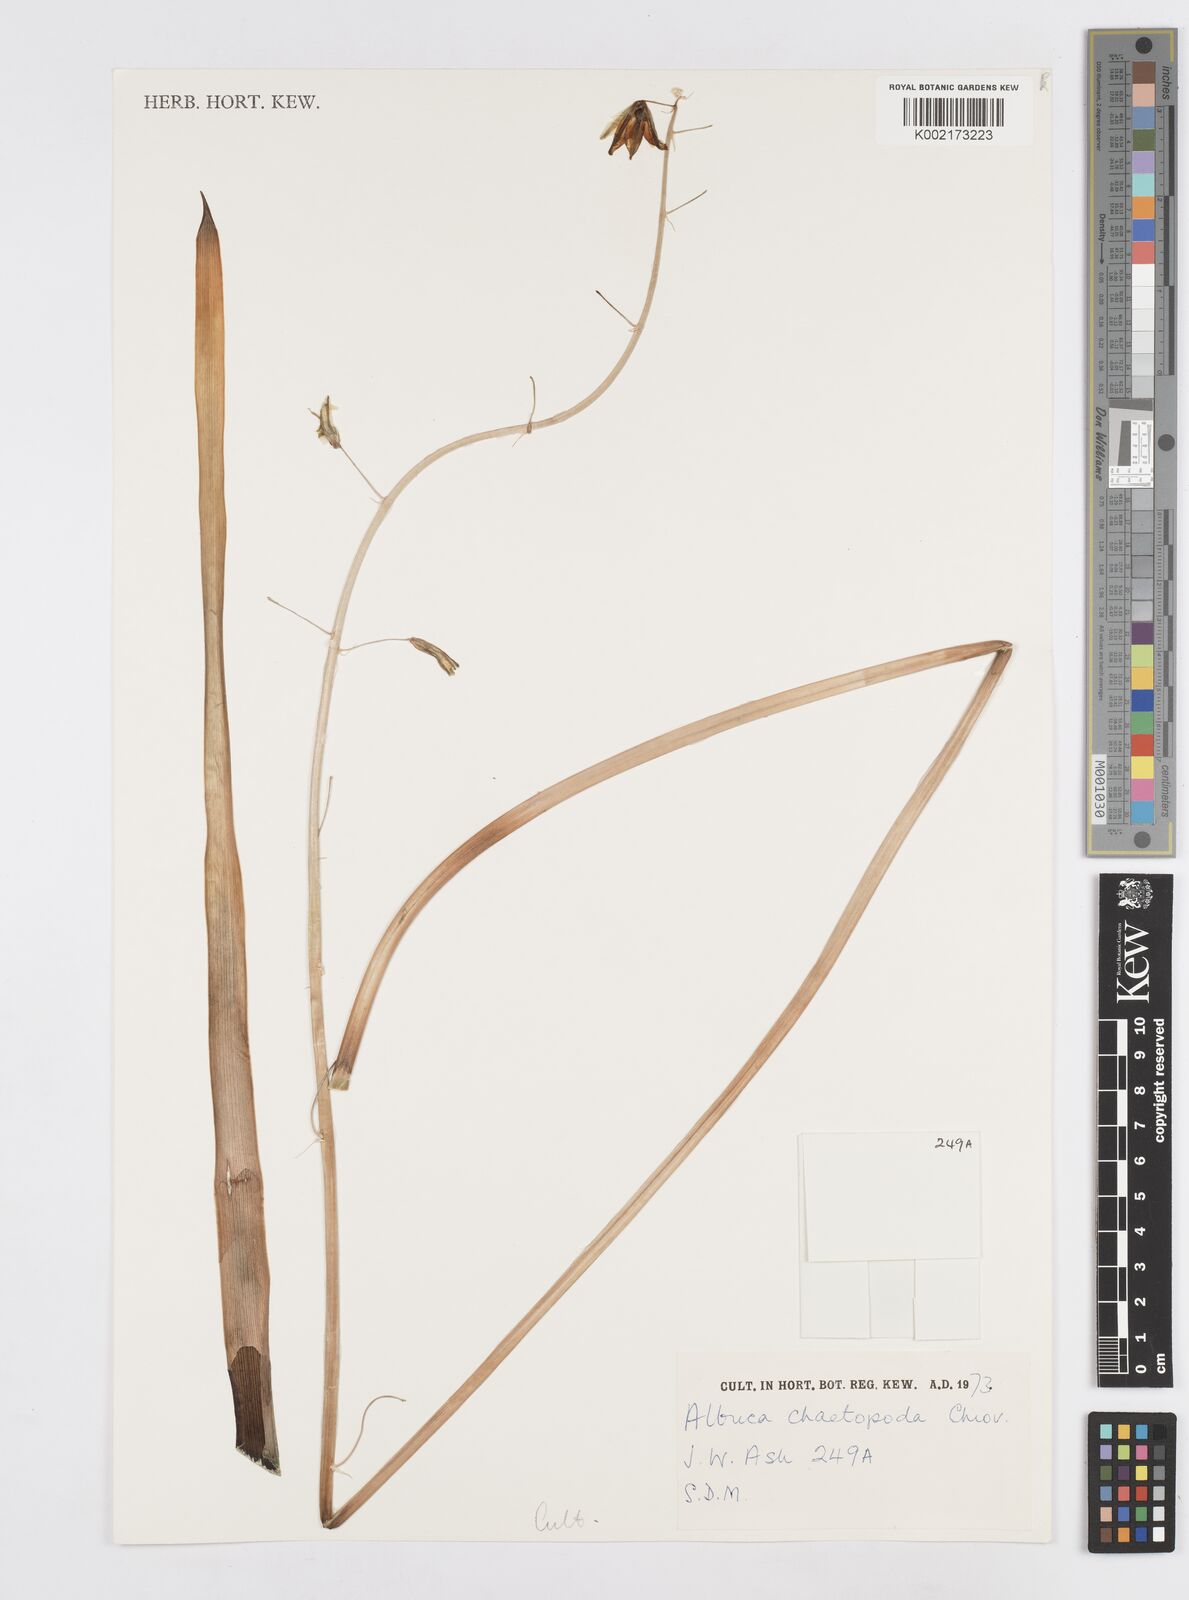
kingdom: Plantae
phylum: Tracheophyta
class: Liliopsida
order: Asparagales
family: Asparagaceae
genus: Albuca
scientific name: Albuca abyssinica
